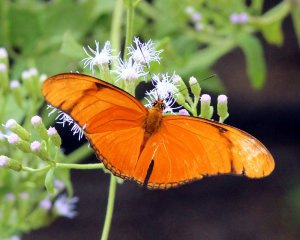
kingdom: Animalia
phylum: Arthropoda
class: Insecta
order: Lepidoptera
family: Nymphalidae
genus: Dryas
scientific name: Dryas iulia
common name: Julia
